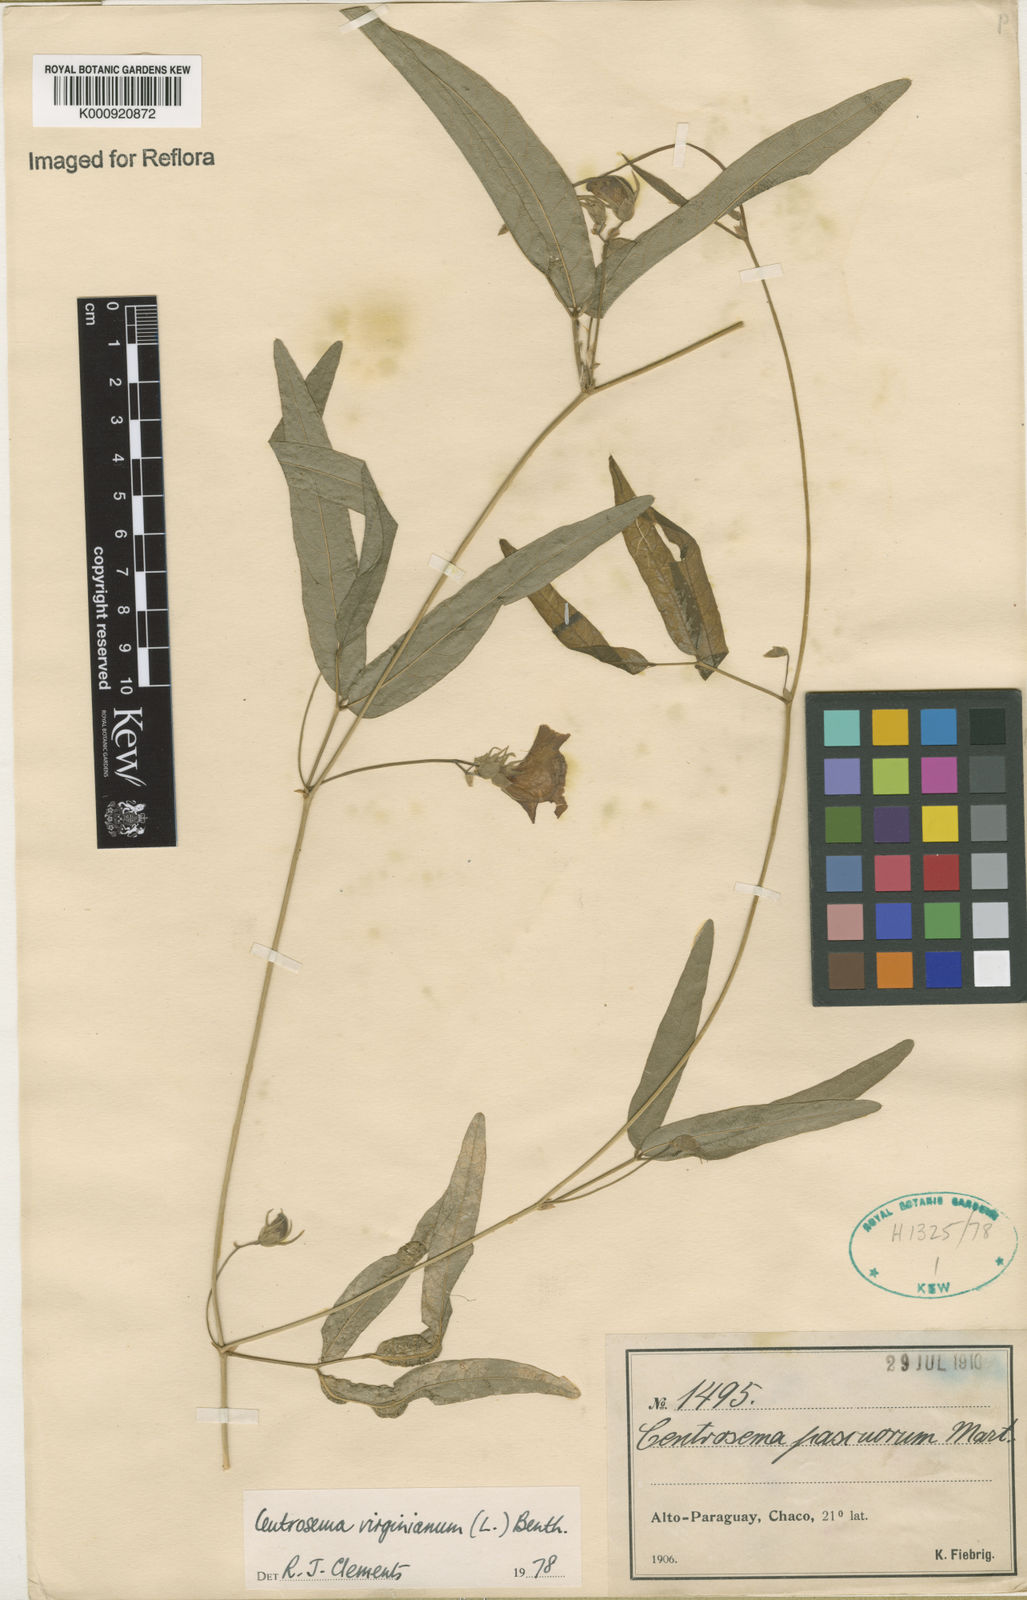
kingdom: Plantae
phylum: Tracheophyta
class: Magnoliopsida
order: Fabales
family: Fabaceae
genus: Centrosema
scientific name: Centrosema virginianum
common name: Butterfly-pea
